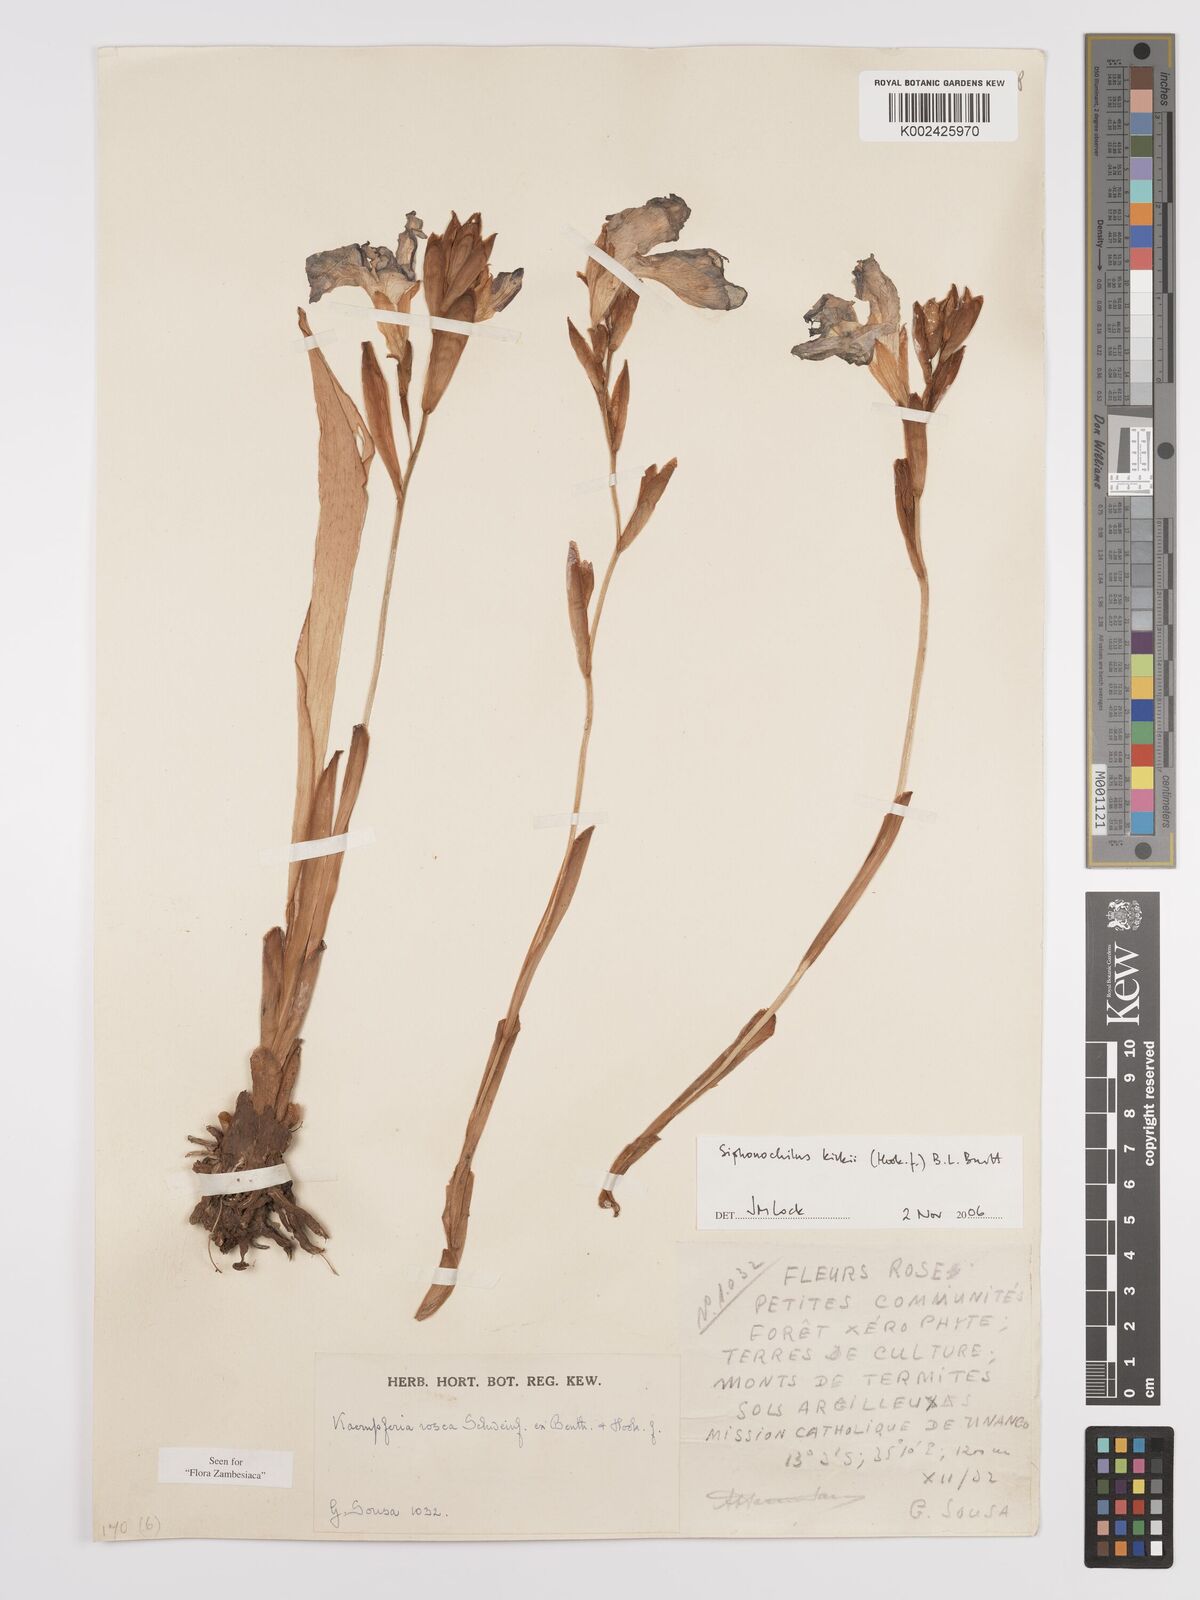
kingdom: Plantae
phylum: Tracheophyta
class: Liliopsida
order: Zingiberales
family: Zingiberaceae
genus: Siphonochilus
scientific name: Siphonochilus kirkii
